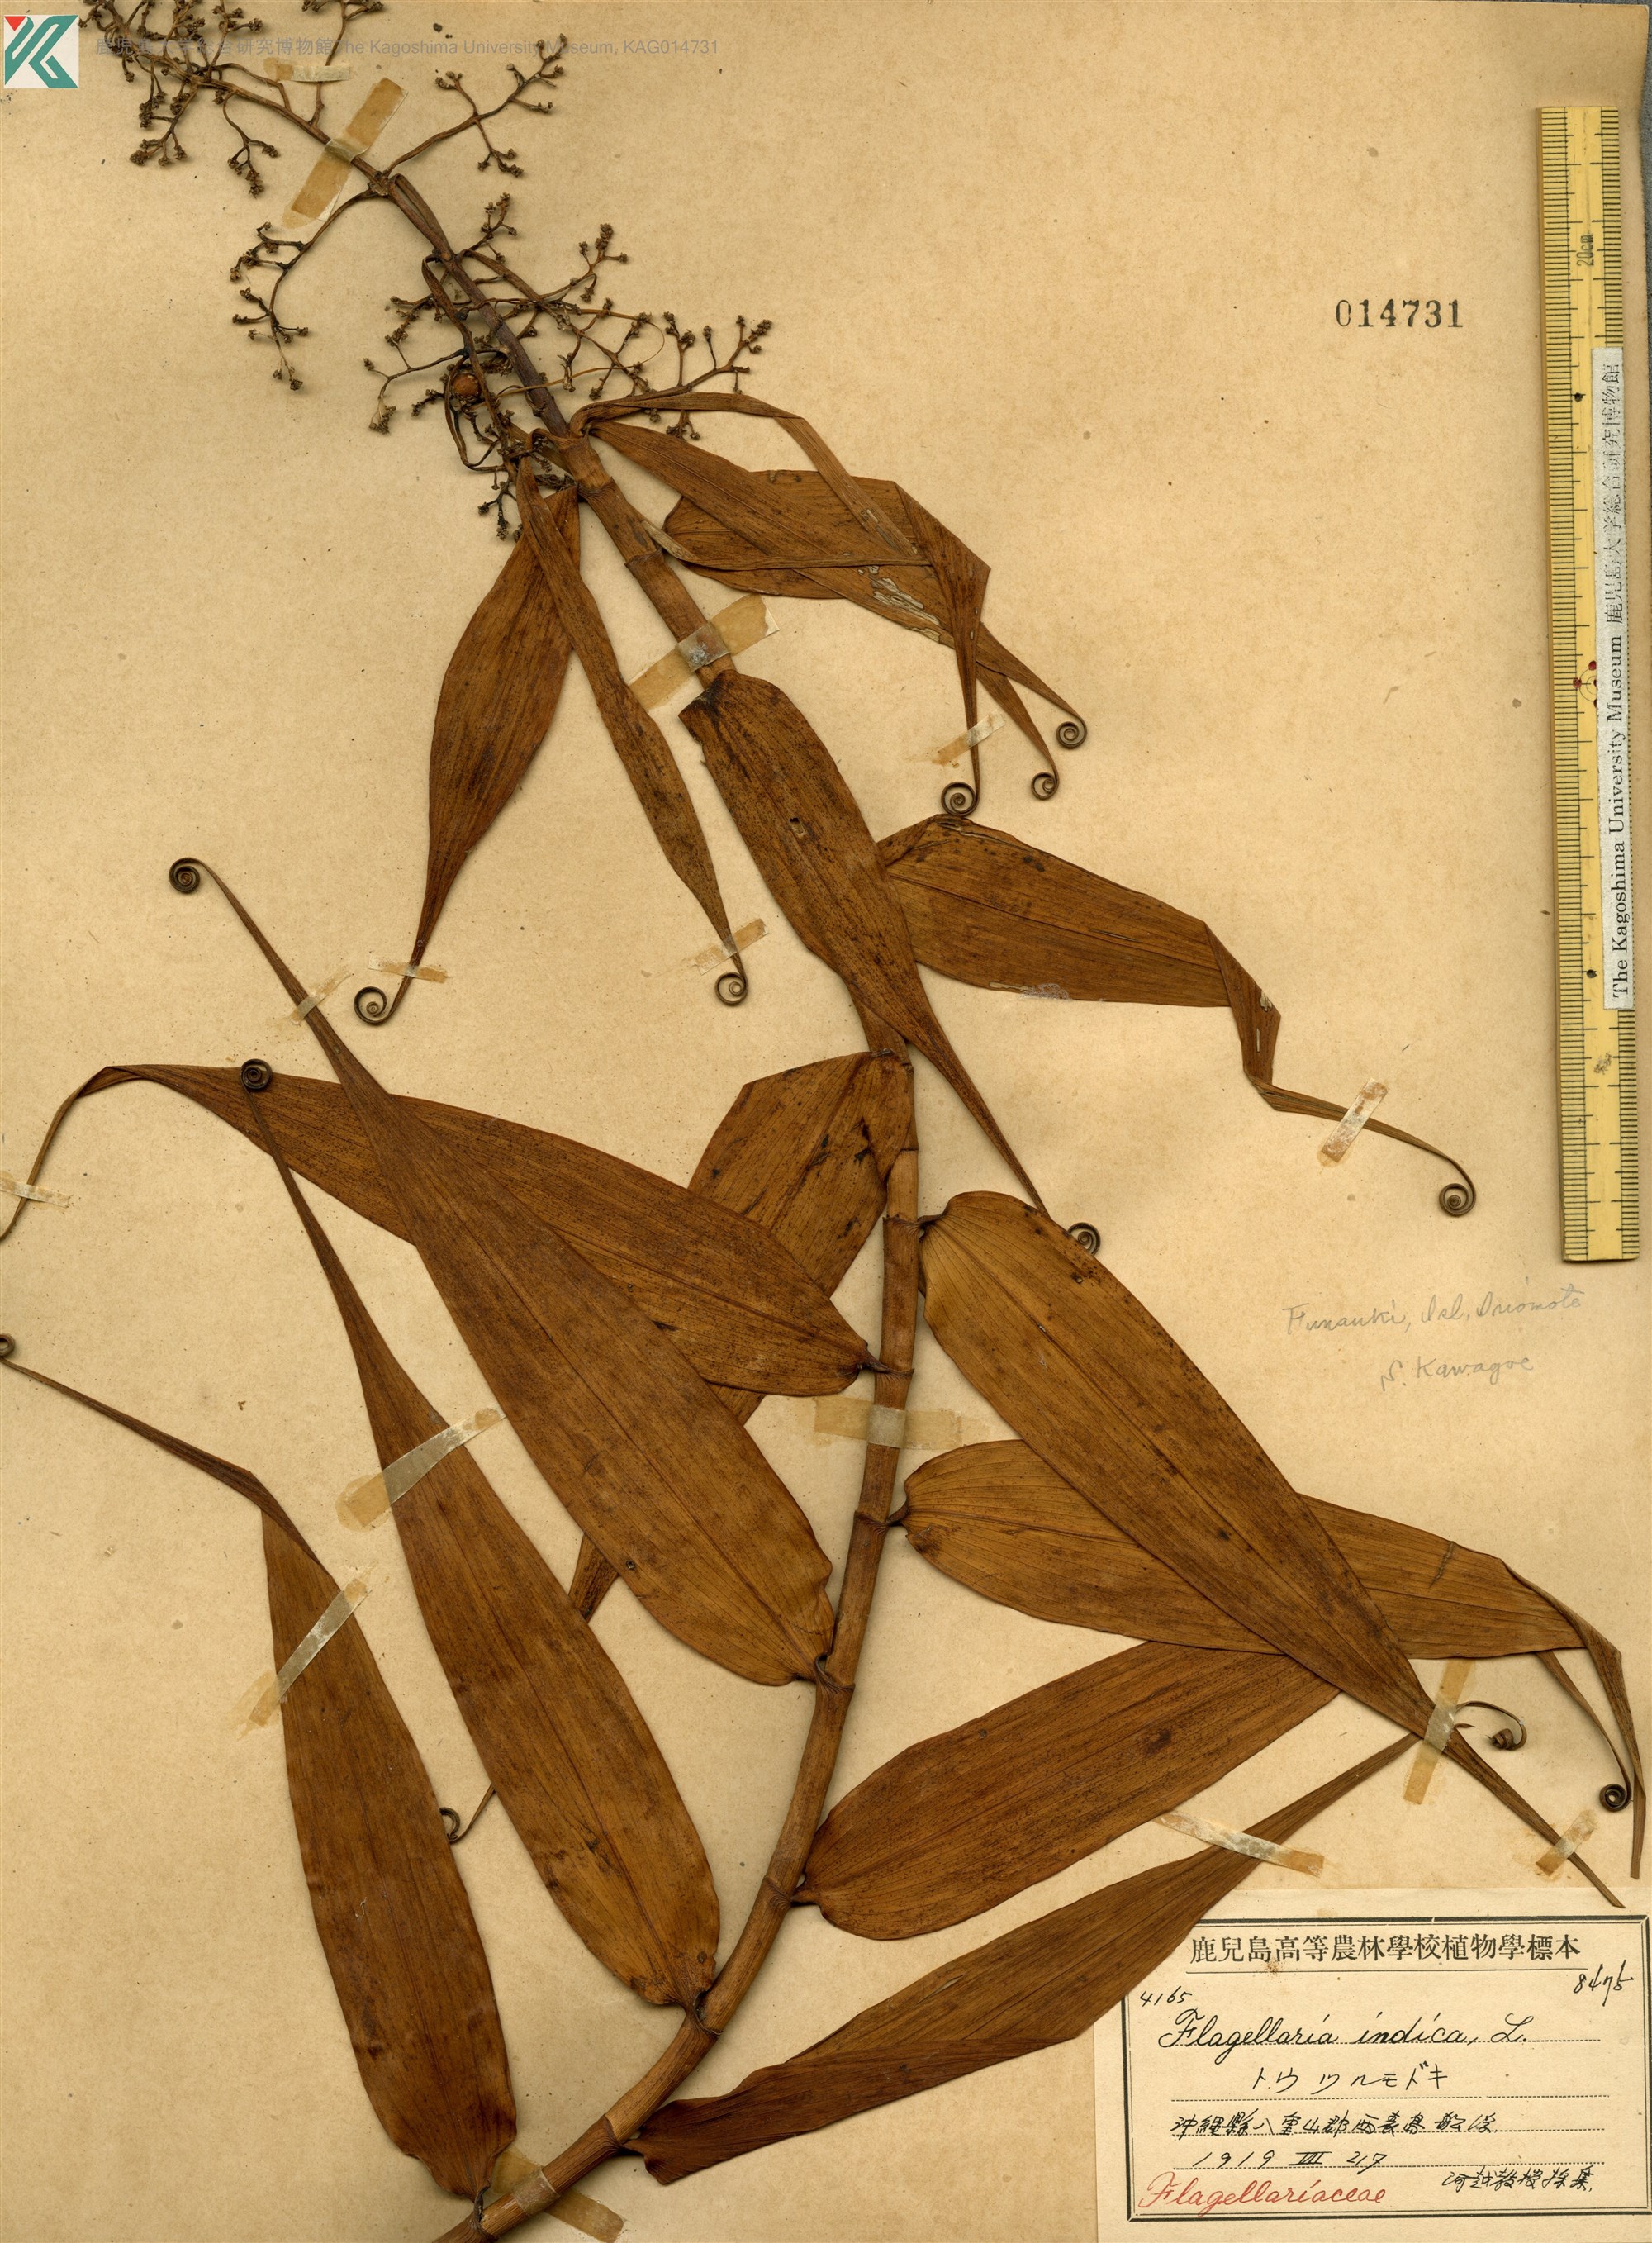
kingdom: Plantae
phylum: Tracheophyta
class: Liliopsida
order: Poales
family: Flagellariaceae
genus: Flagellaria
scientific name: Flagellaria indica
